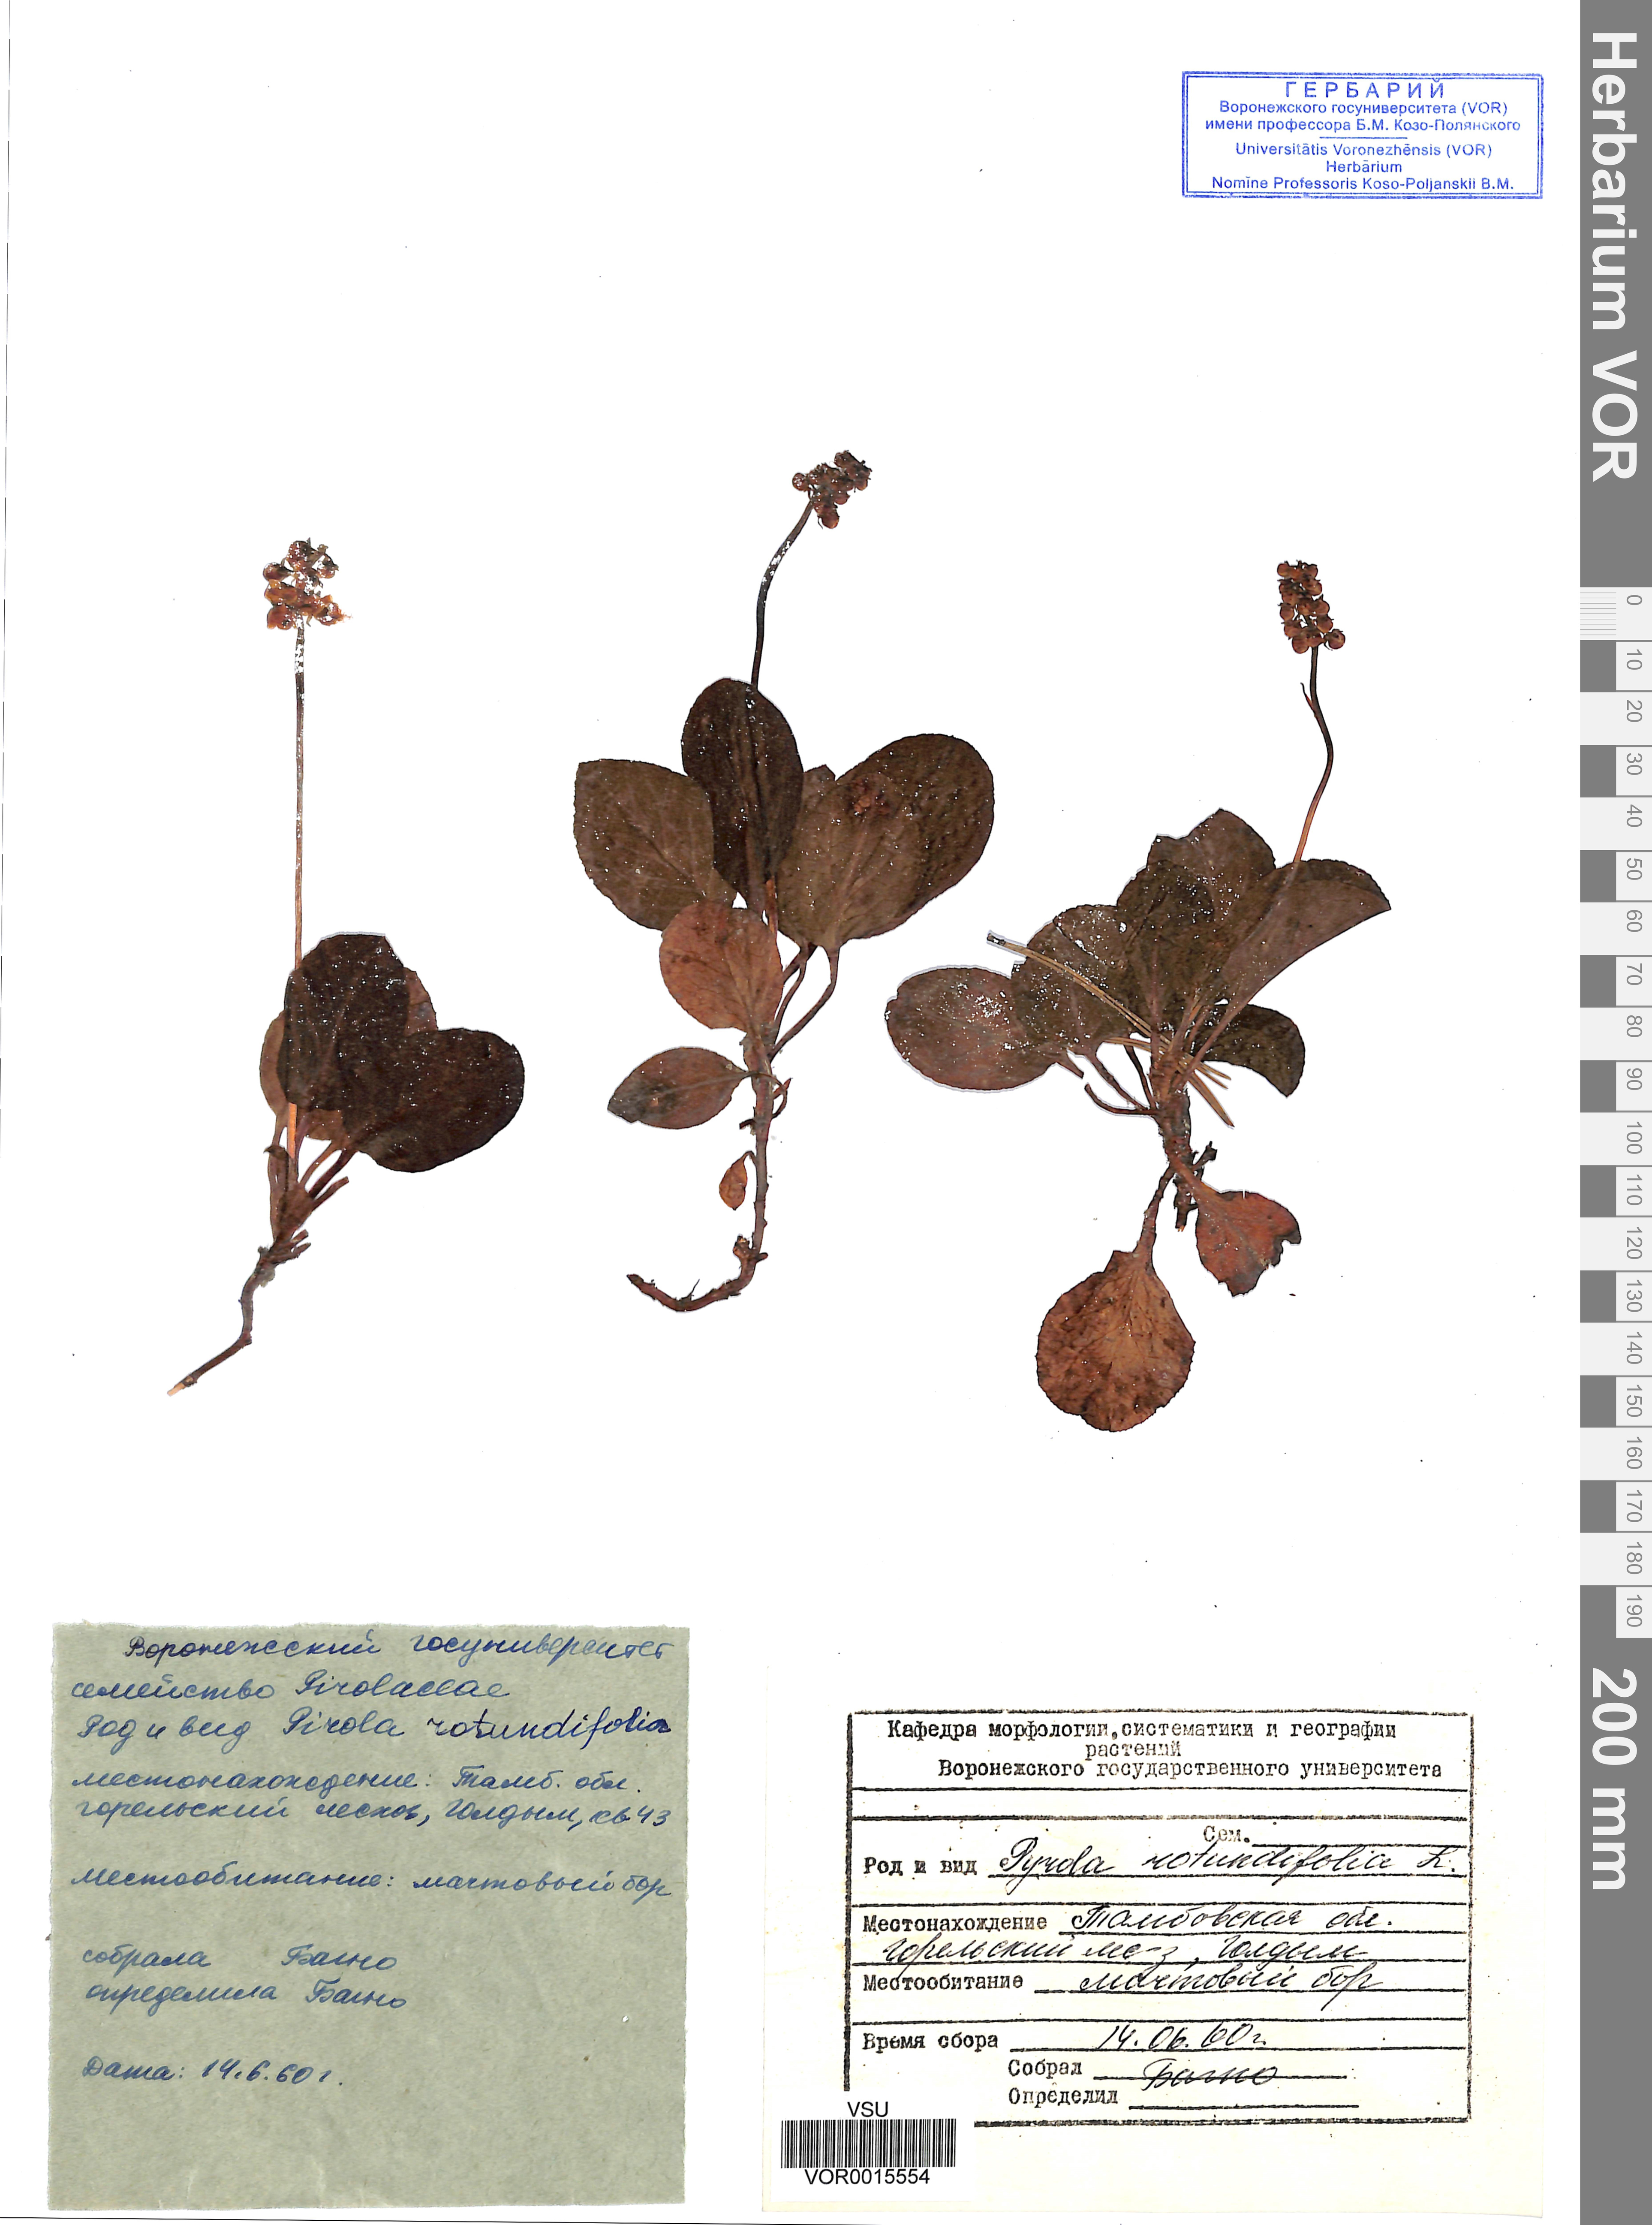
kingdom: Plantae
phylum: Tracheophyta
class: Magnoliopsida
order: Ericales
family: Ericaceae
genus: Pyrola
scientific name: Pyrola rotundifolia
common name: Round-leaved wintergreen
